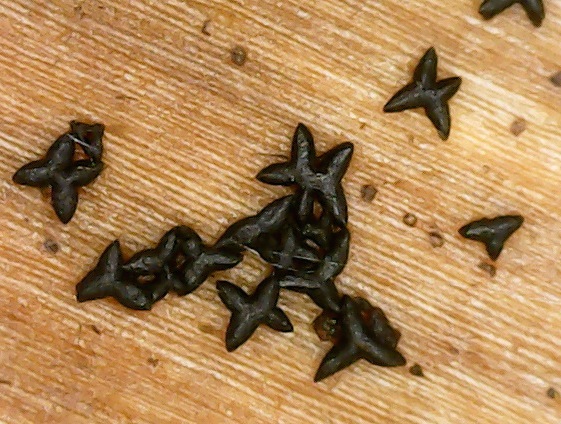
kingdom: Fungi
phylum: Ascomycota
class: Dothideomycetes
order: Mytilinidiales
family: Mytilinidiaceae
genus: Actidium
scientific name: Actidium hysterioides
